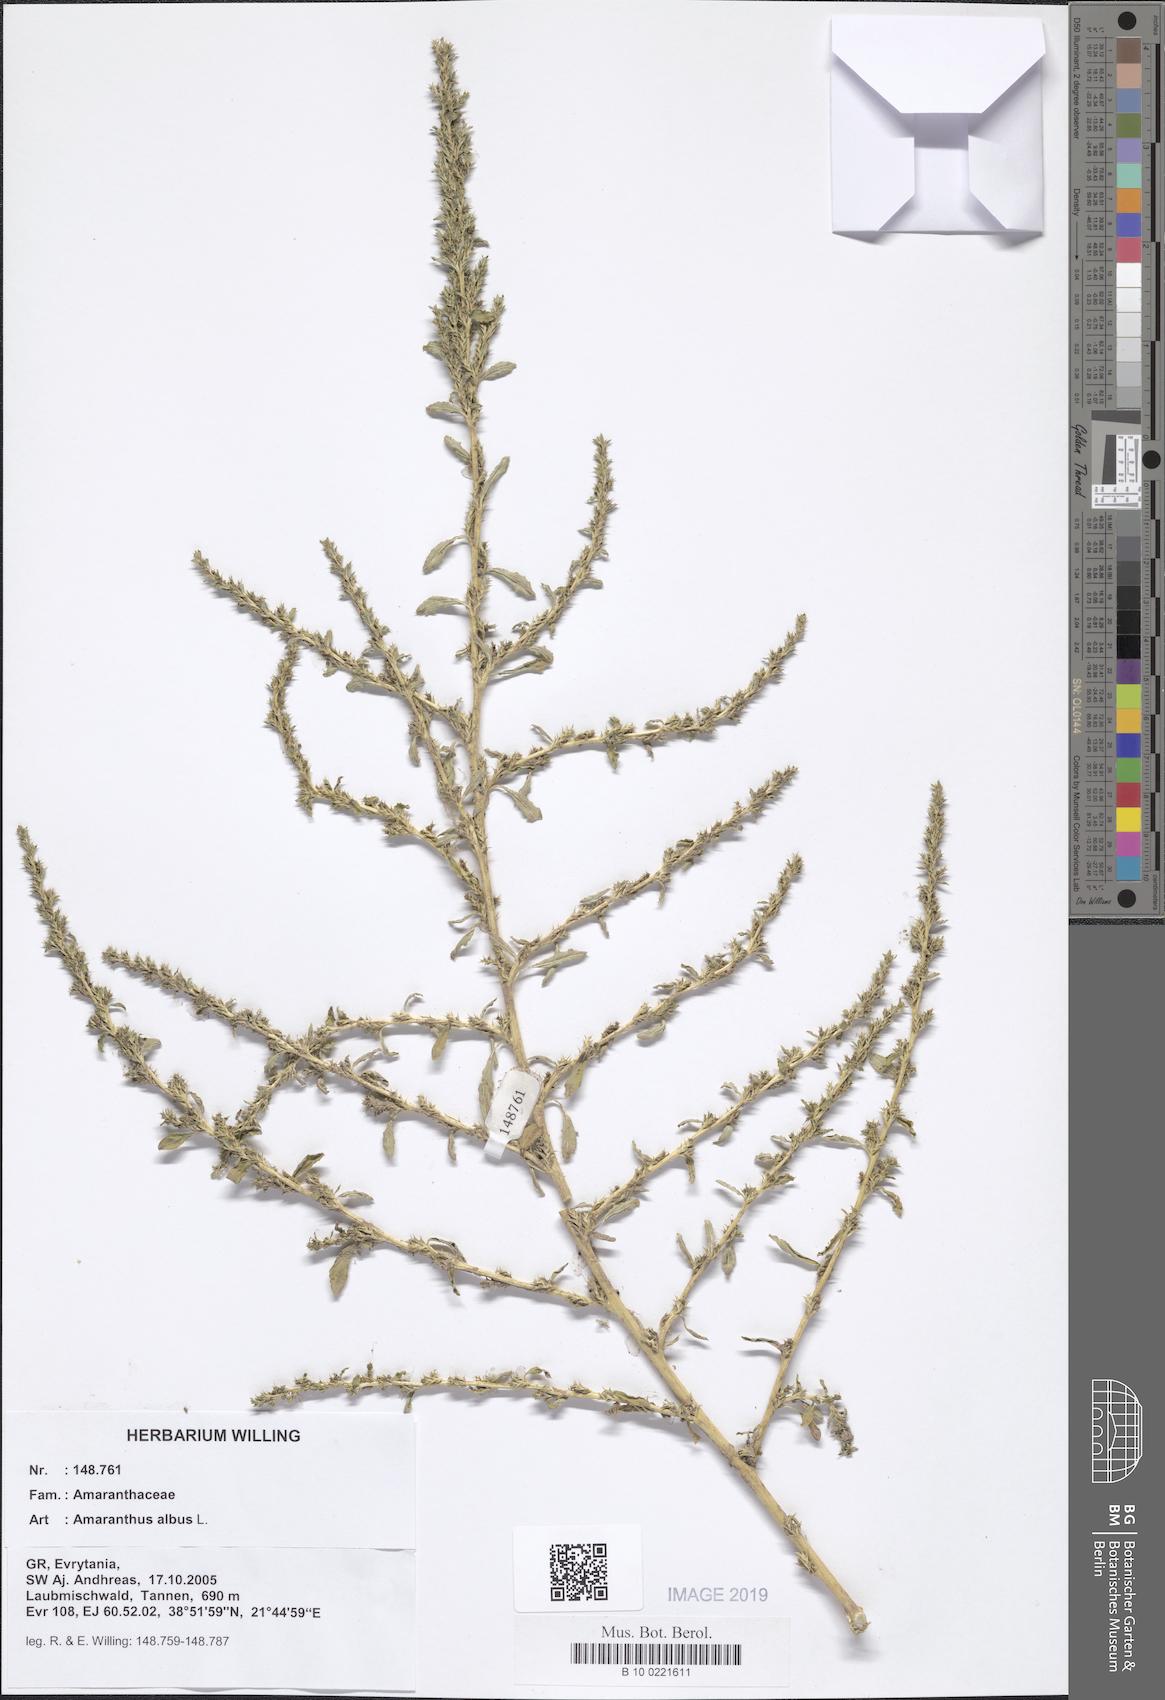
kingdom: Plantae
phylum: Tracheophyta
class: Magnoliopsida
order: Caryophyllales
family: Amaranthaceae
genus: Amaranthus
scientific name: Amaranthus albus
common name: White pigweed
